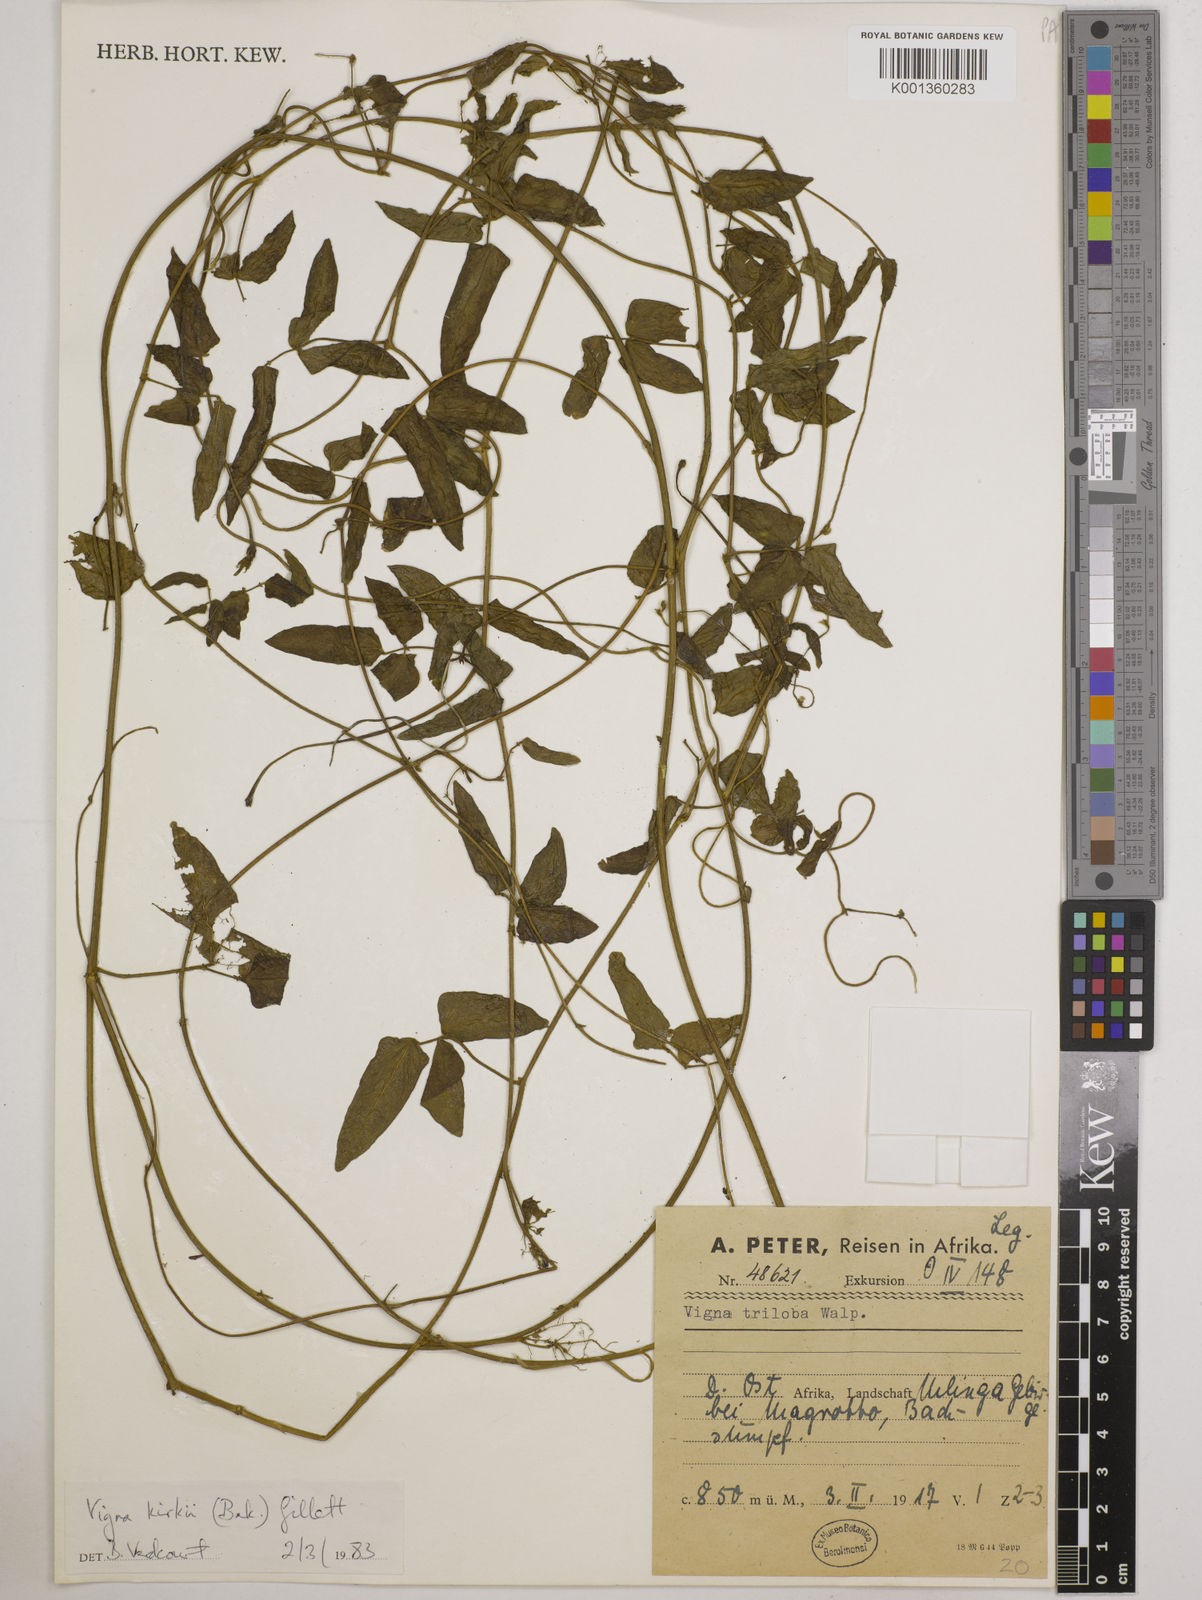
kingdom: Plantae
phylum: Tracheophyta
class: Magnoliopsida
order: Fabales
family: Fabaceae
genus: Vigna
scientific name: Vigna kirkii
